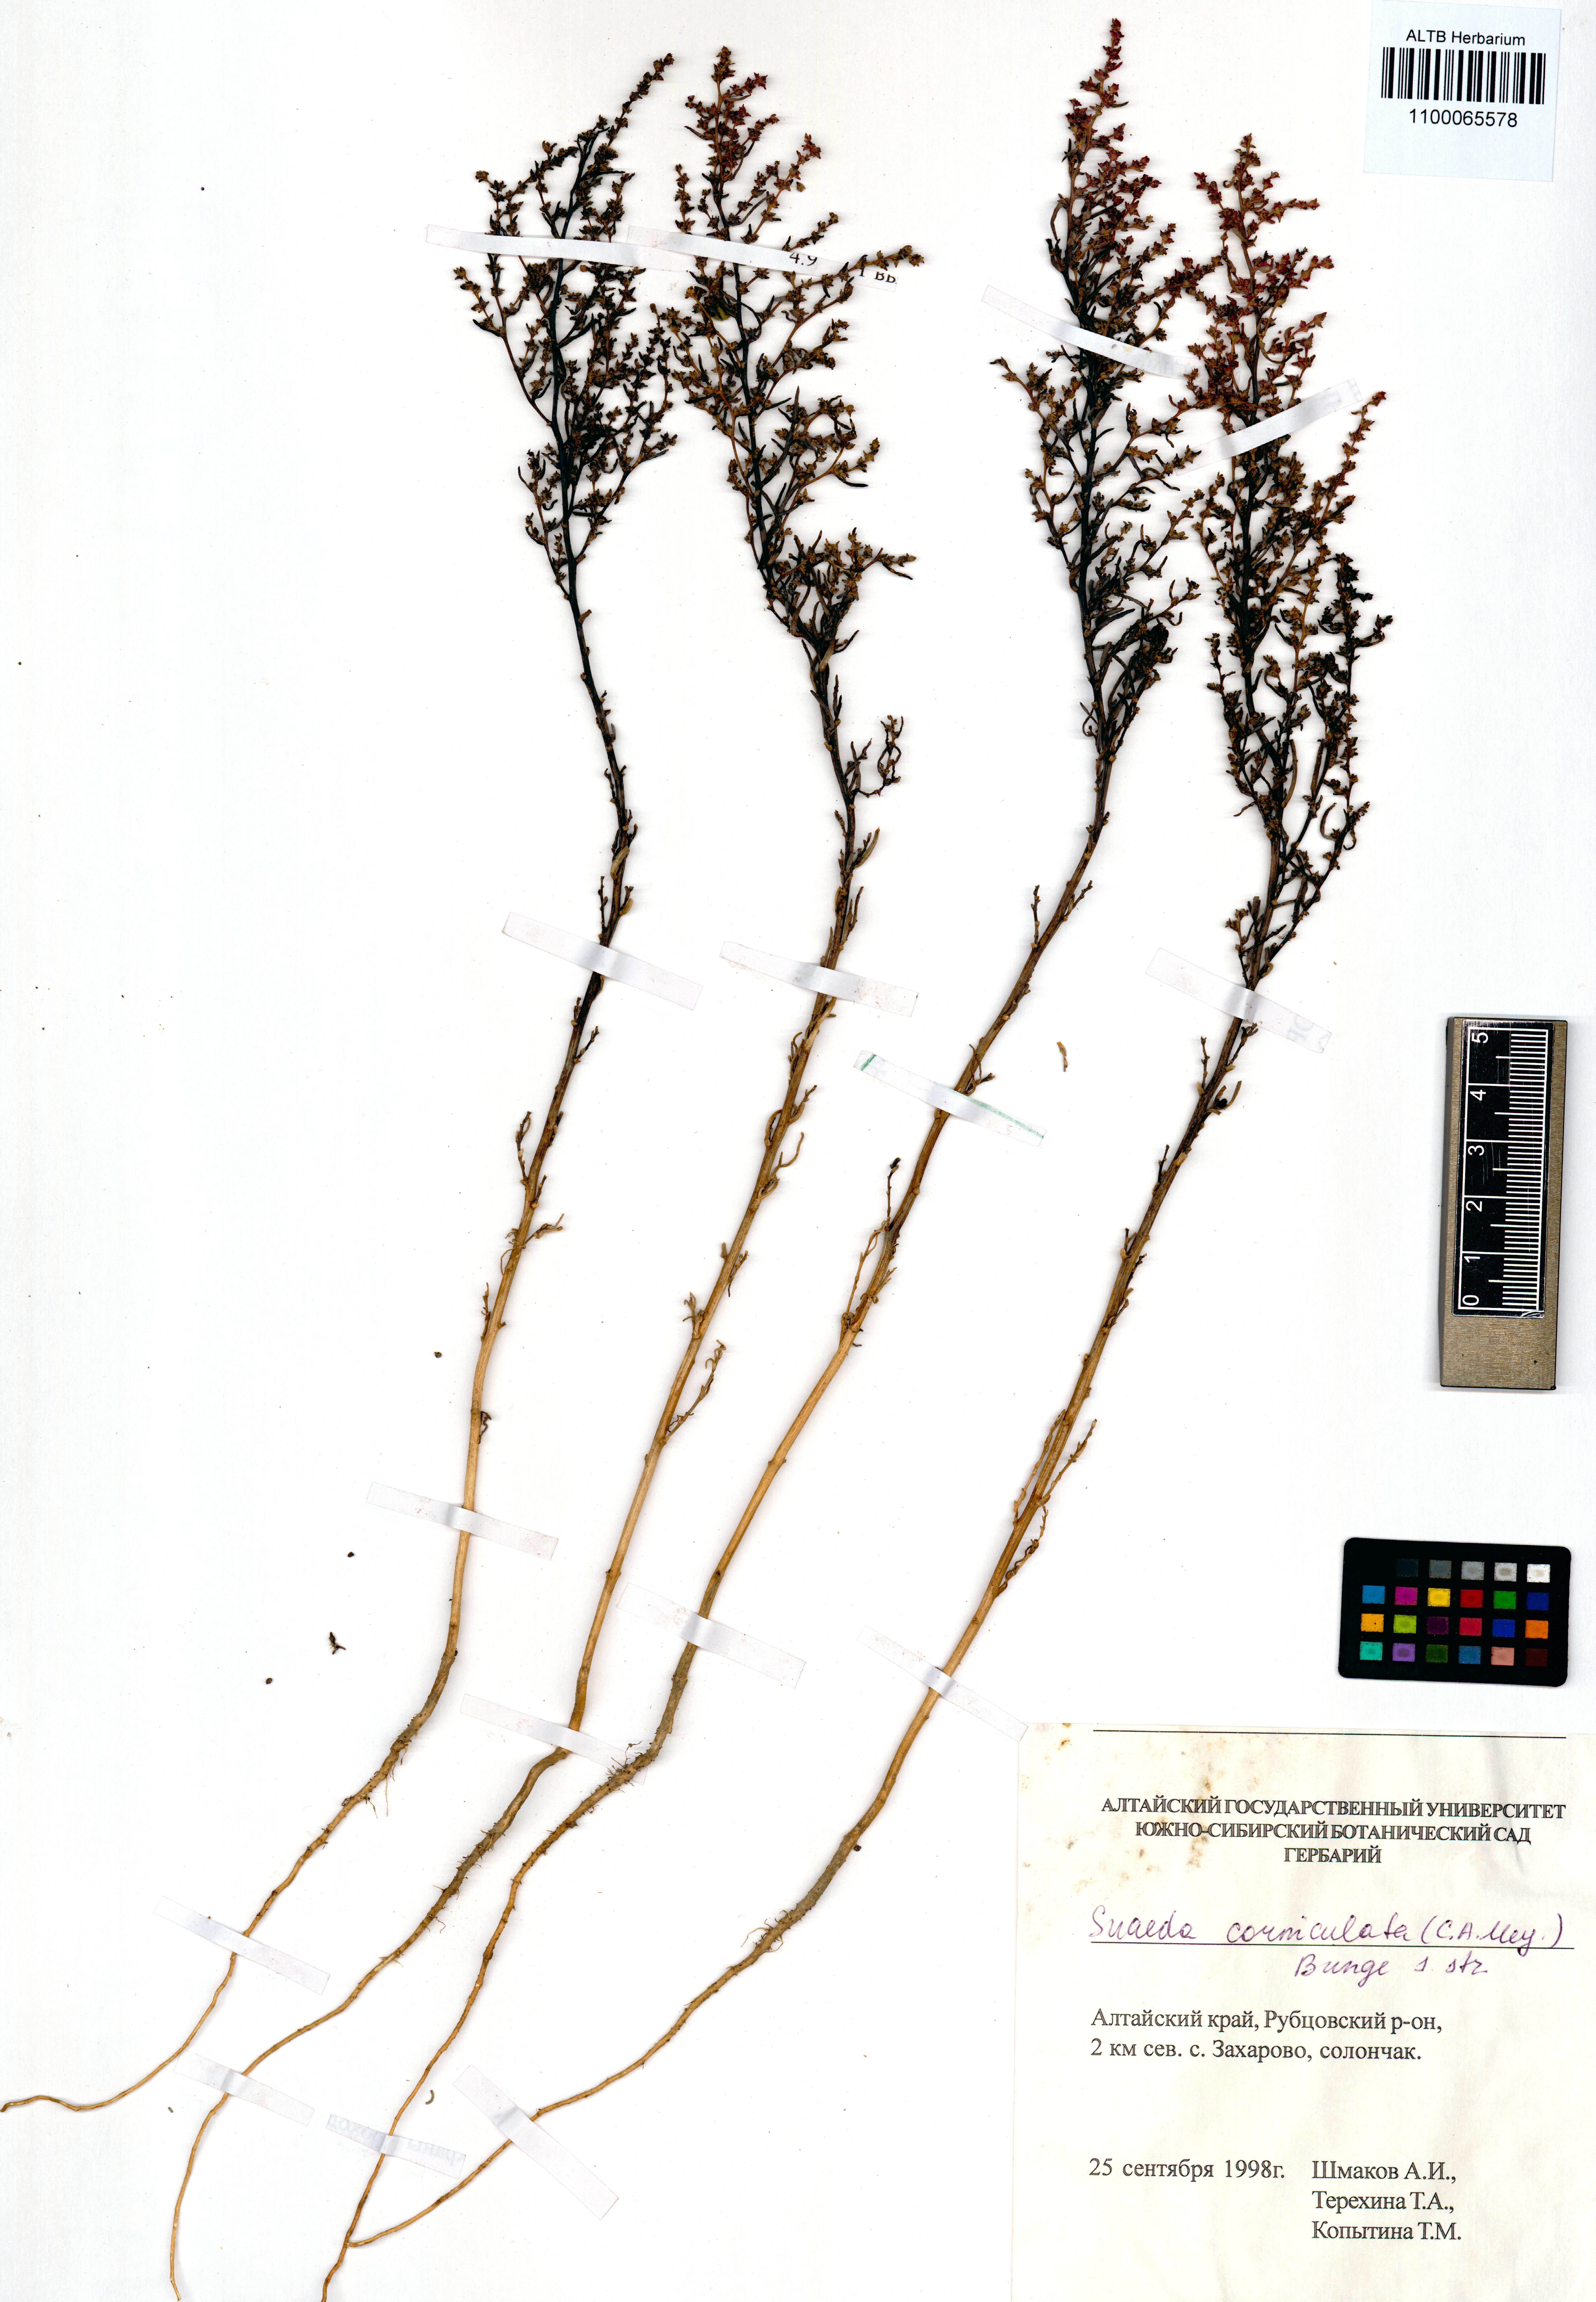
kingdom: Plantae
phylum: Tracheophyta
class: Magnoliopsida
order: Caryophyllales
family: Amaranthaceae
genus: Suaeda
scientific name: Suaeda corniculata
